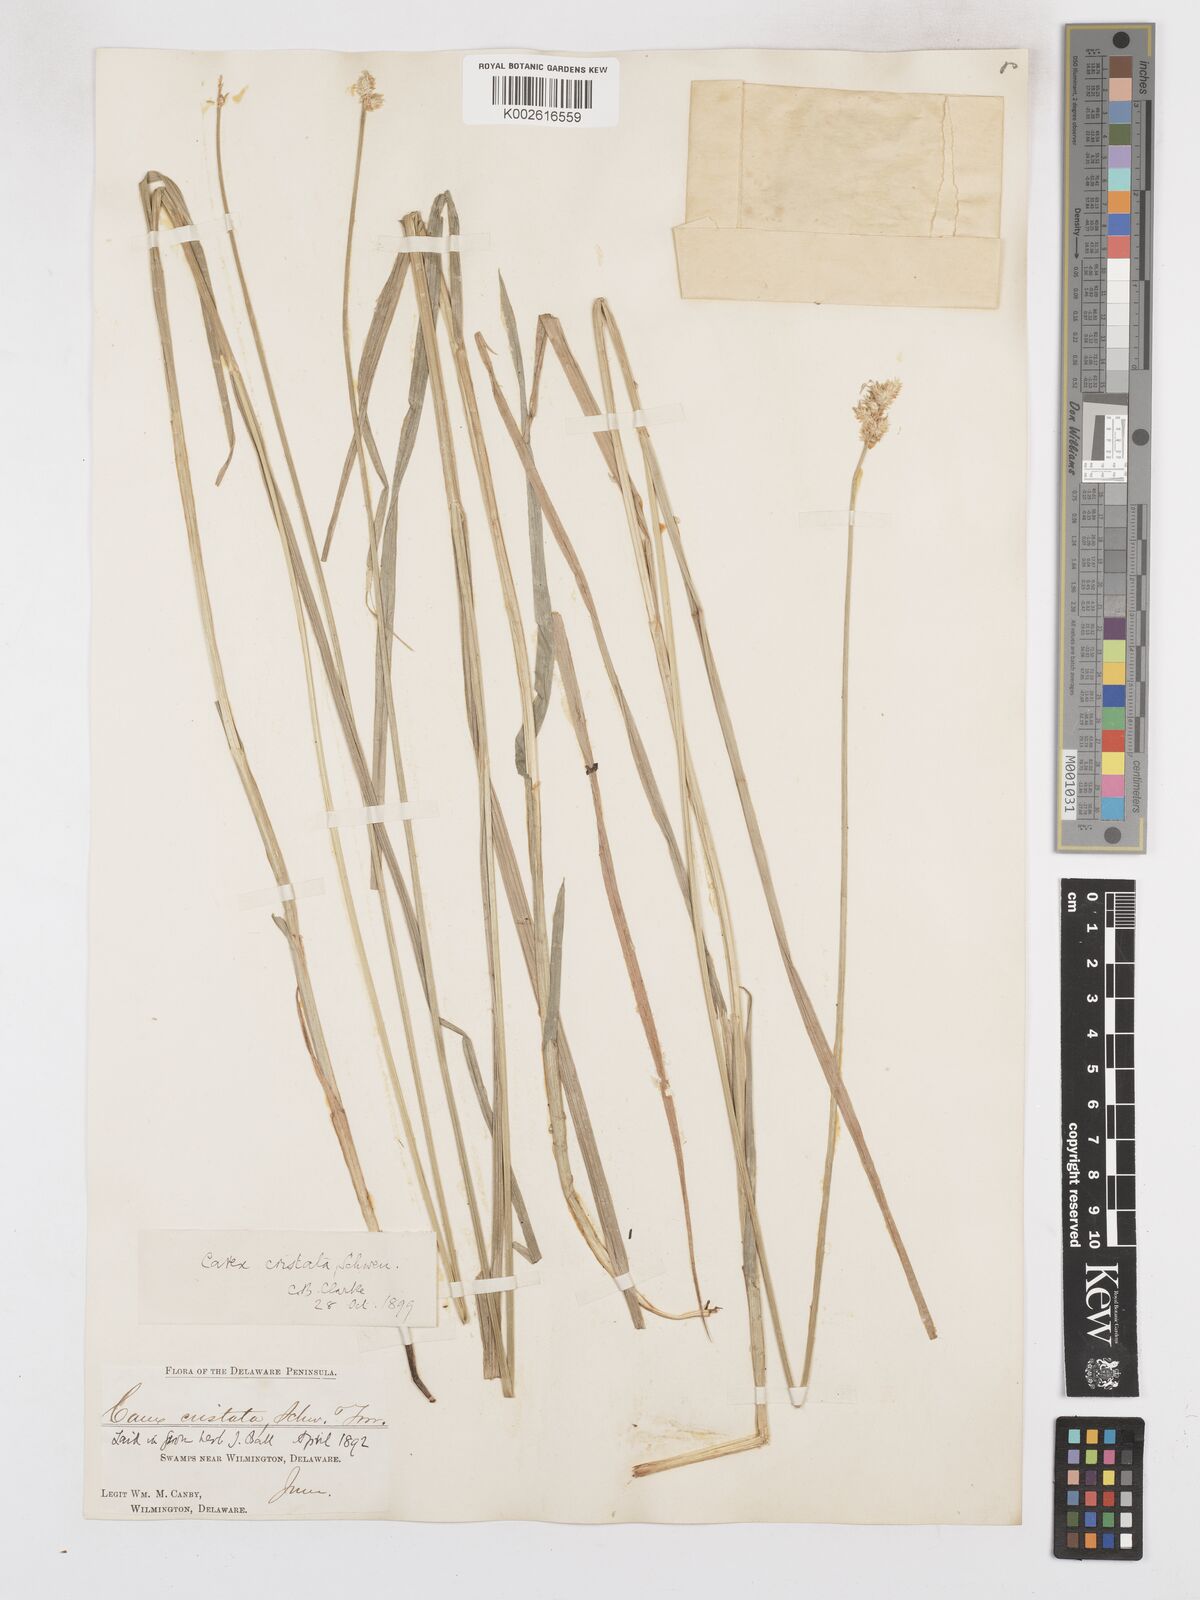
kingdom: Plantae
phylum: Tracheophyta
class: Liliopsida
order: Poales
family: Cyperaceae
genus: Carex
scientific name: Carex cristatella
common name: Crested oval sedge
